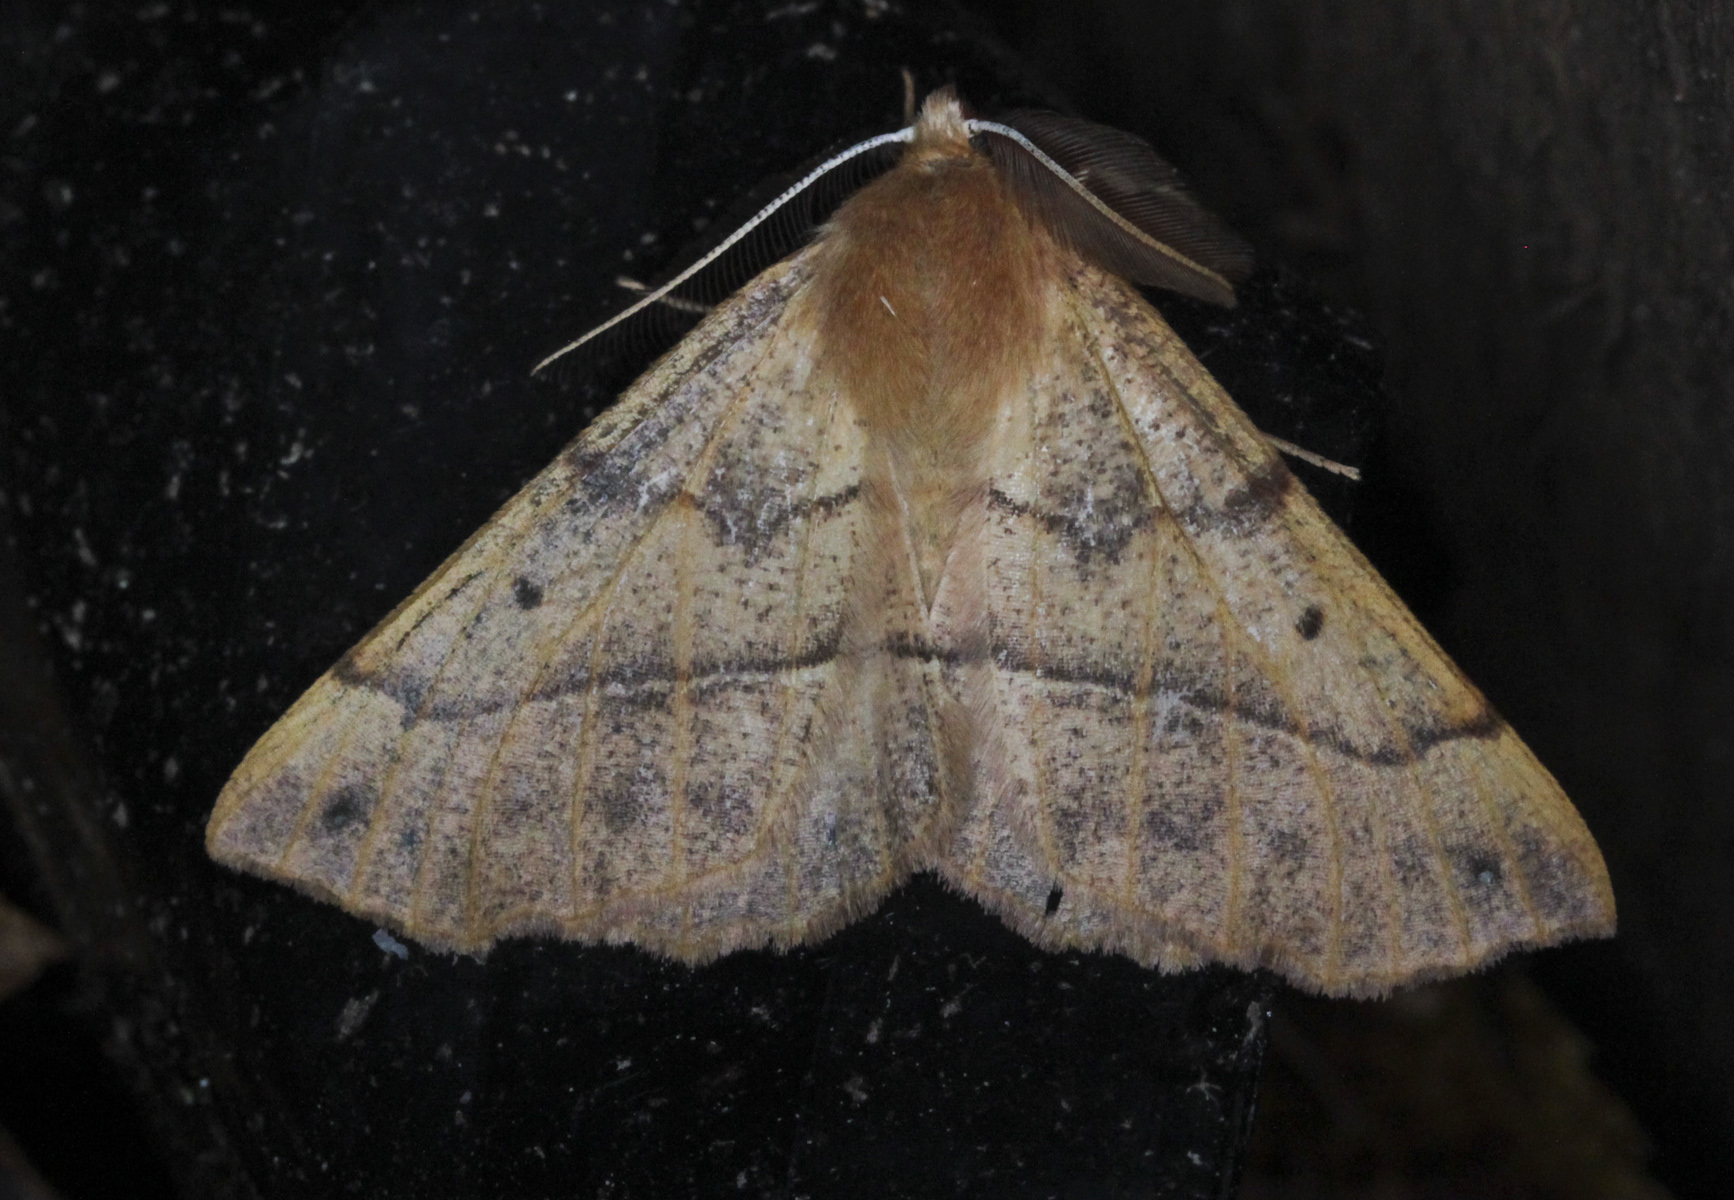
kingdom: Animalia
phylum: Arthropoda
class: Insecta
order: Lepidoptera
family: Geometridae
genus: Colotois
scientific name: Colotois pennaria
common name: Feathered thorn
